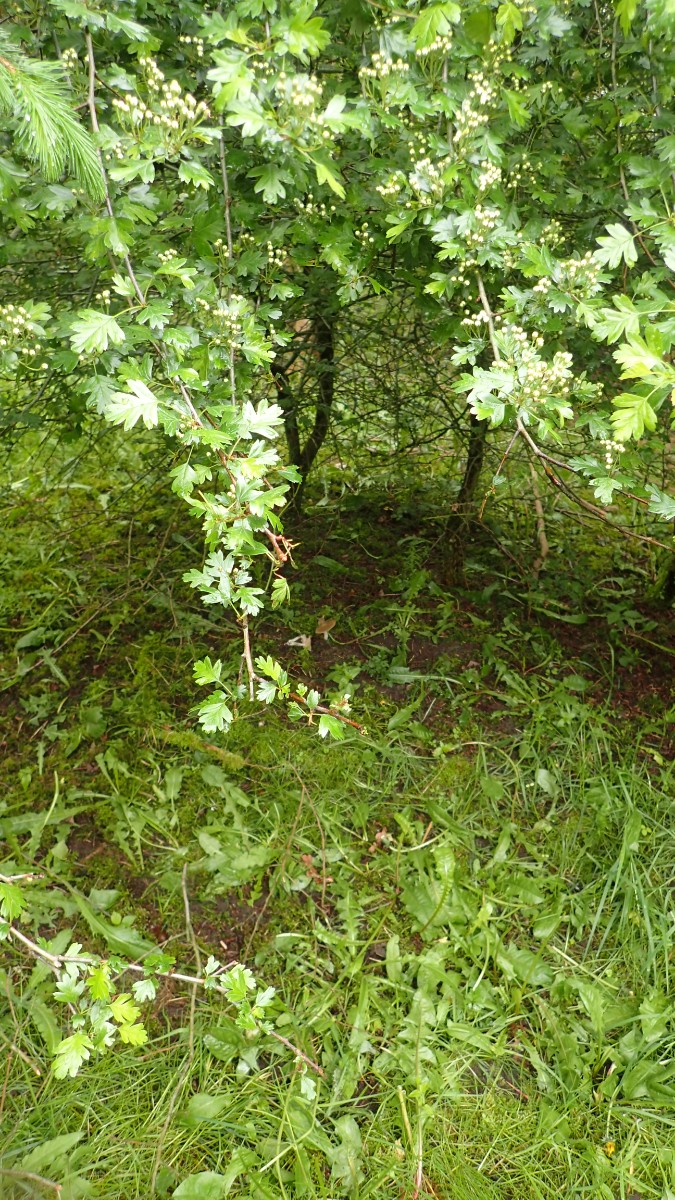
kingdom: Fungi
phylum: Basidiomycota
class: Agaricomycetes
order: Agaricales
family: Entolomataceae
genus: Entoloma
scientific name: Entoloma clypeatum
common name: flammet rødblad
